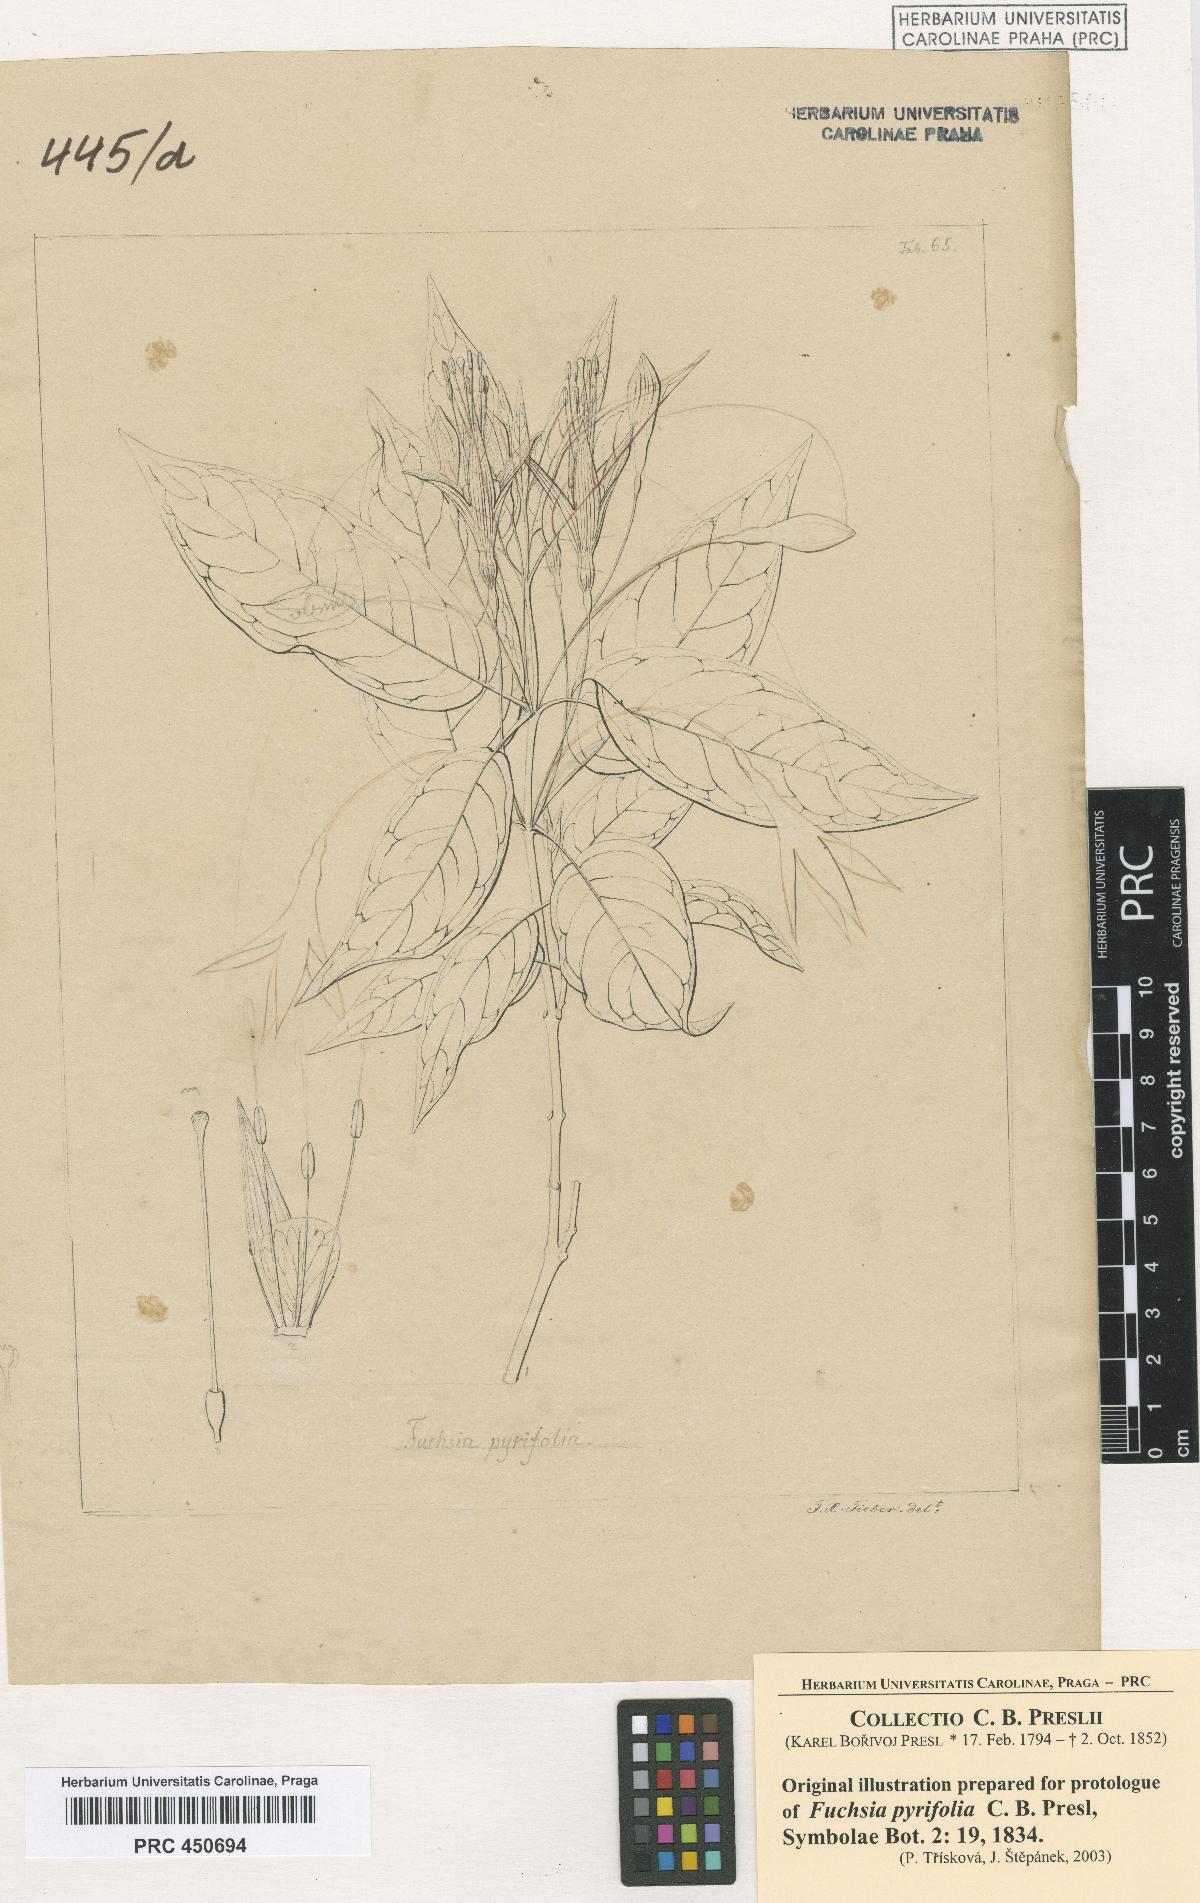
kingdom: Plantae
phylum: Tracheophyta
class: Magnoliopsida
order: Myrtales
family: Onagraceae
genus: Fuchsia
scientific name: Fuchsia regia
